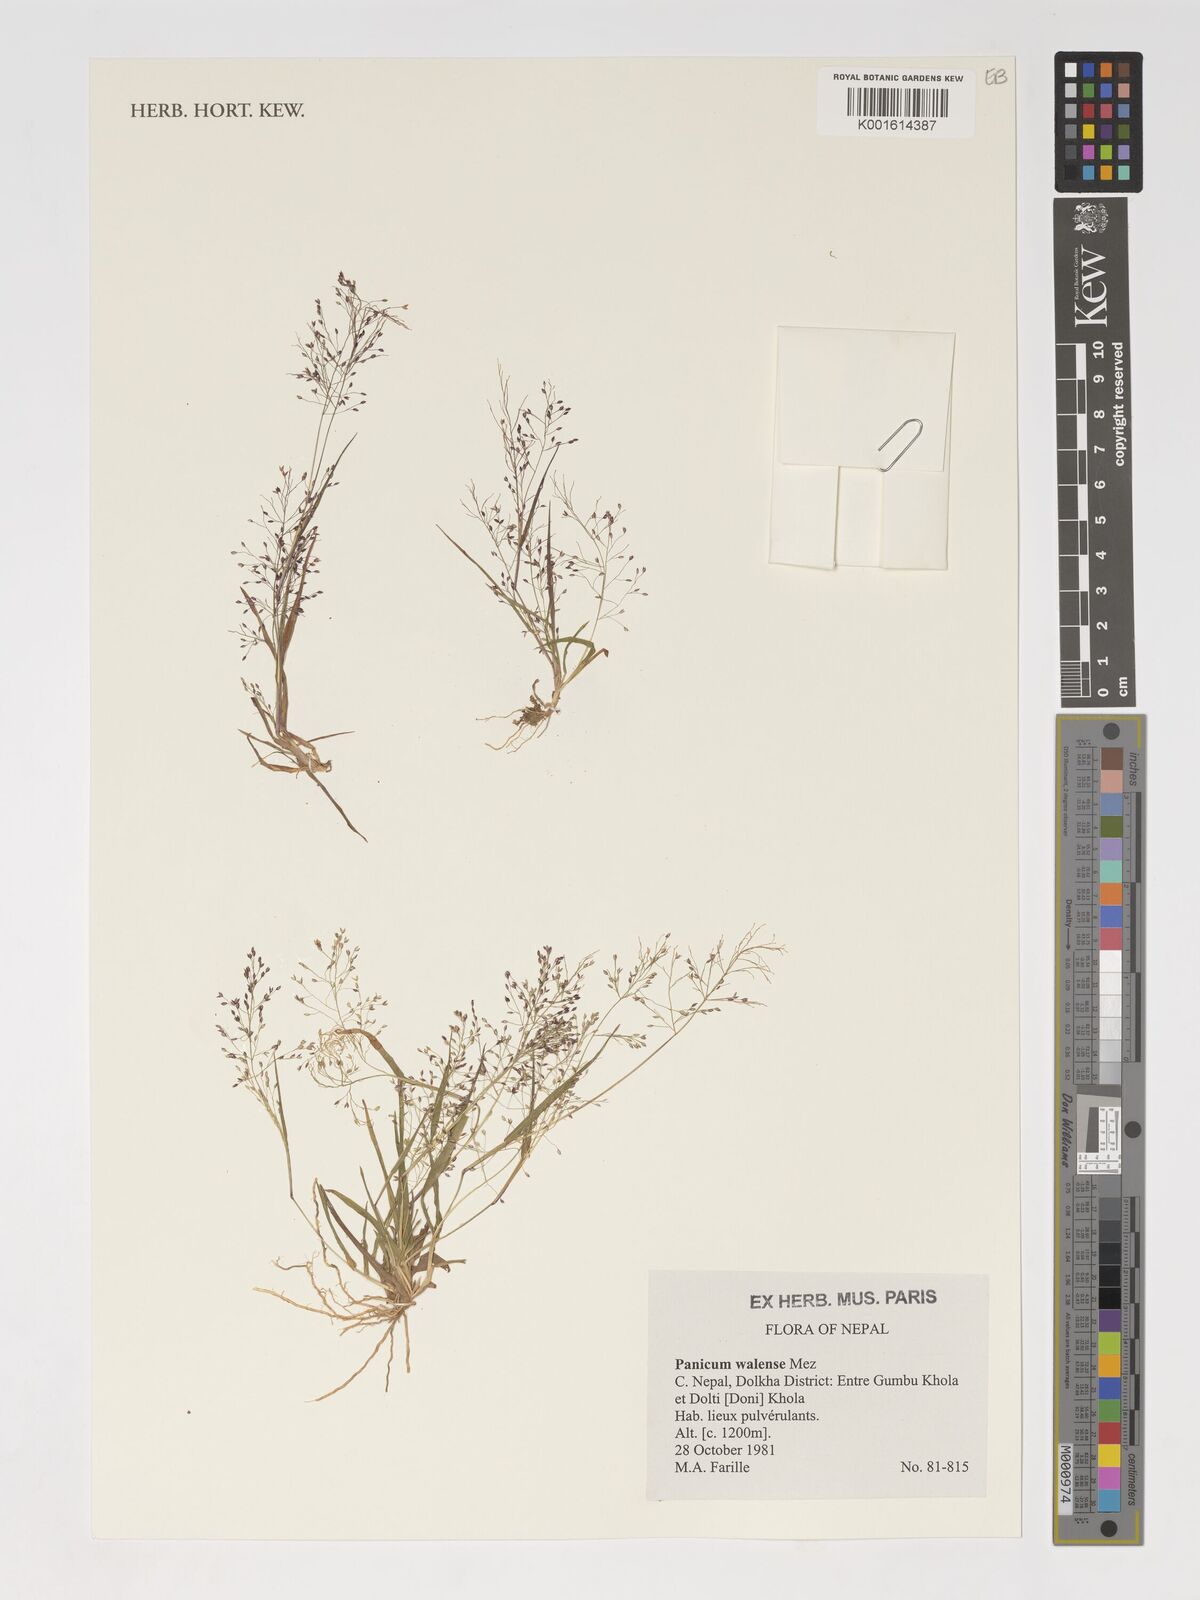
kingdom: Plantae
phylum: Tracheophyta
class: Liliopsida
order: Poales
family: Poaceae
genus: Panicum
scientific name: Panicum humile
